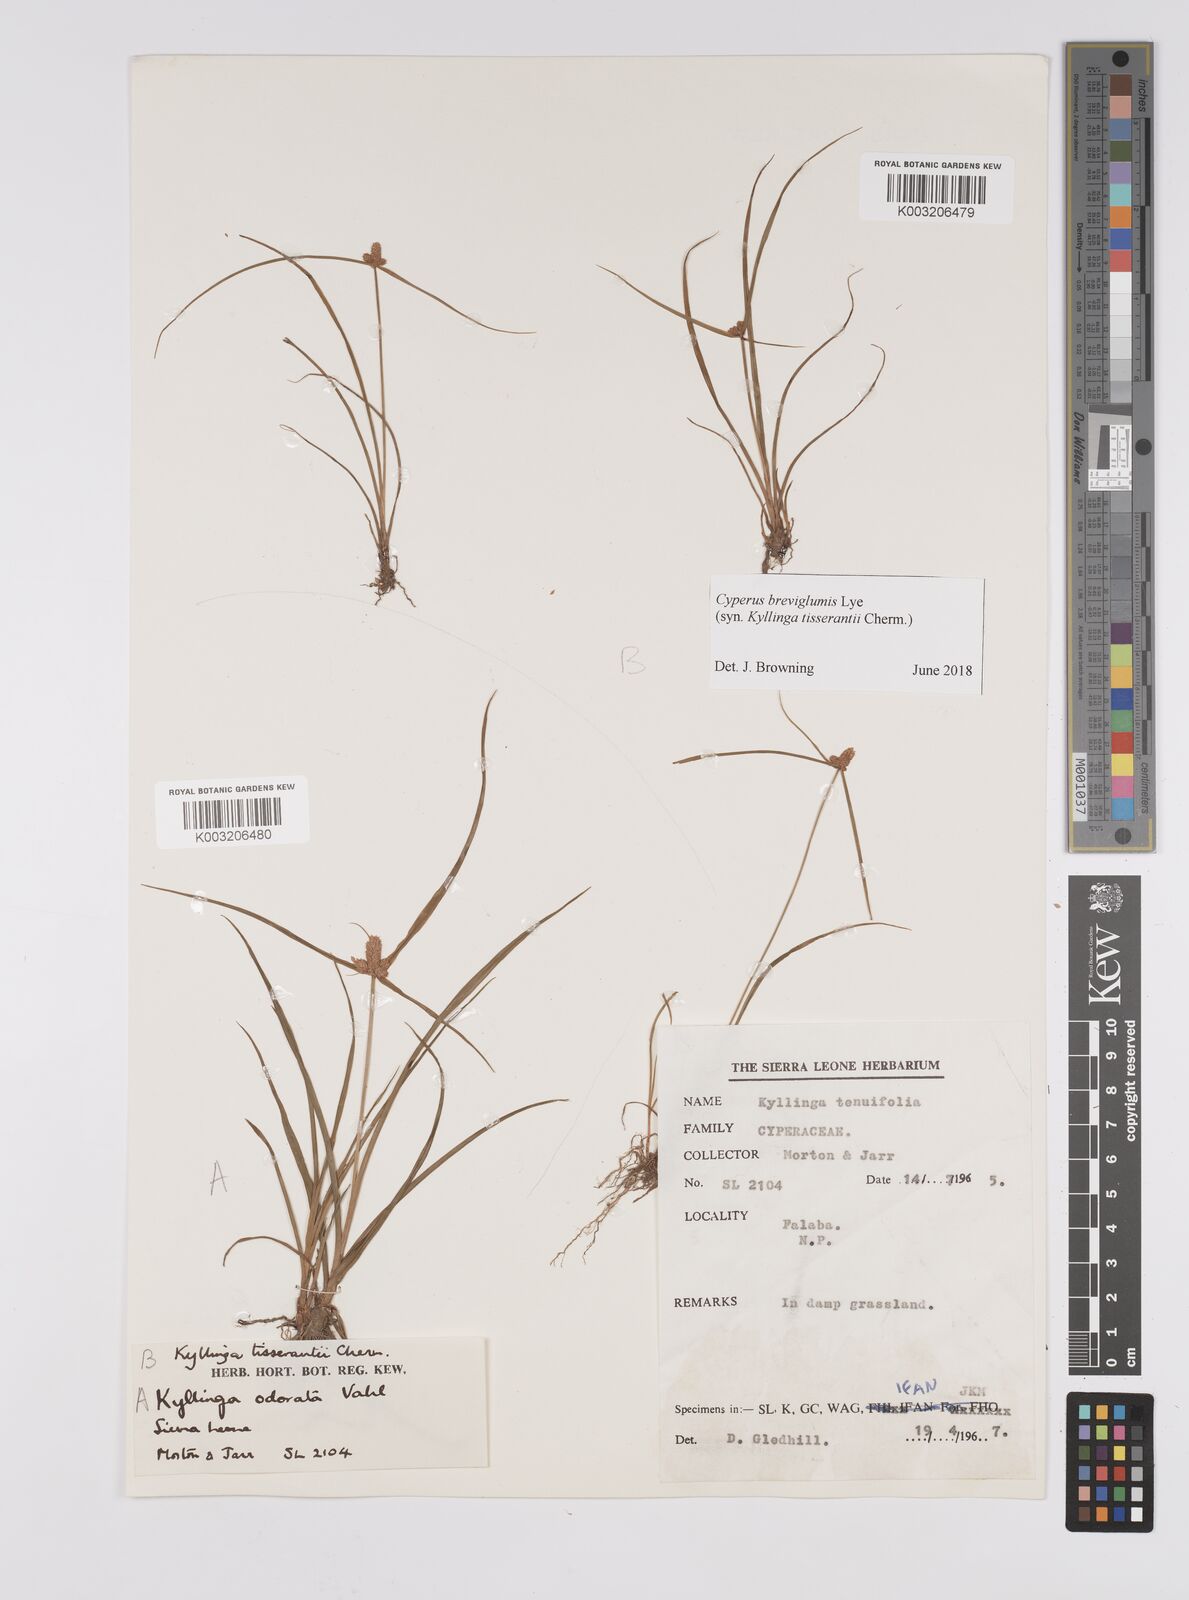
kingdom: Plantae
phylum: Tracheophyta
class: Liliopsida
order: Poales
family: Cyperaceae
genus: Cyperus
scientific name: Cyperus niveus
